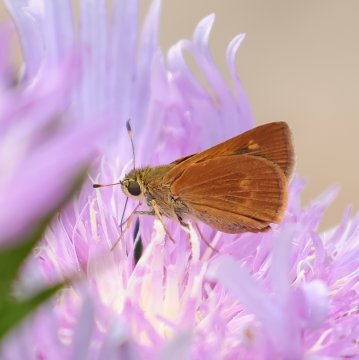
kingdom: Animalia
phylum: Arthropoda
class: Insecta
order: Lepidoptera
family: Hesperiidae
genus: Wallengrenia
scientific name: Wallengrenia otho
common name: Southern Broken-Dash
